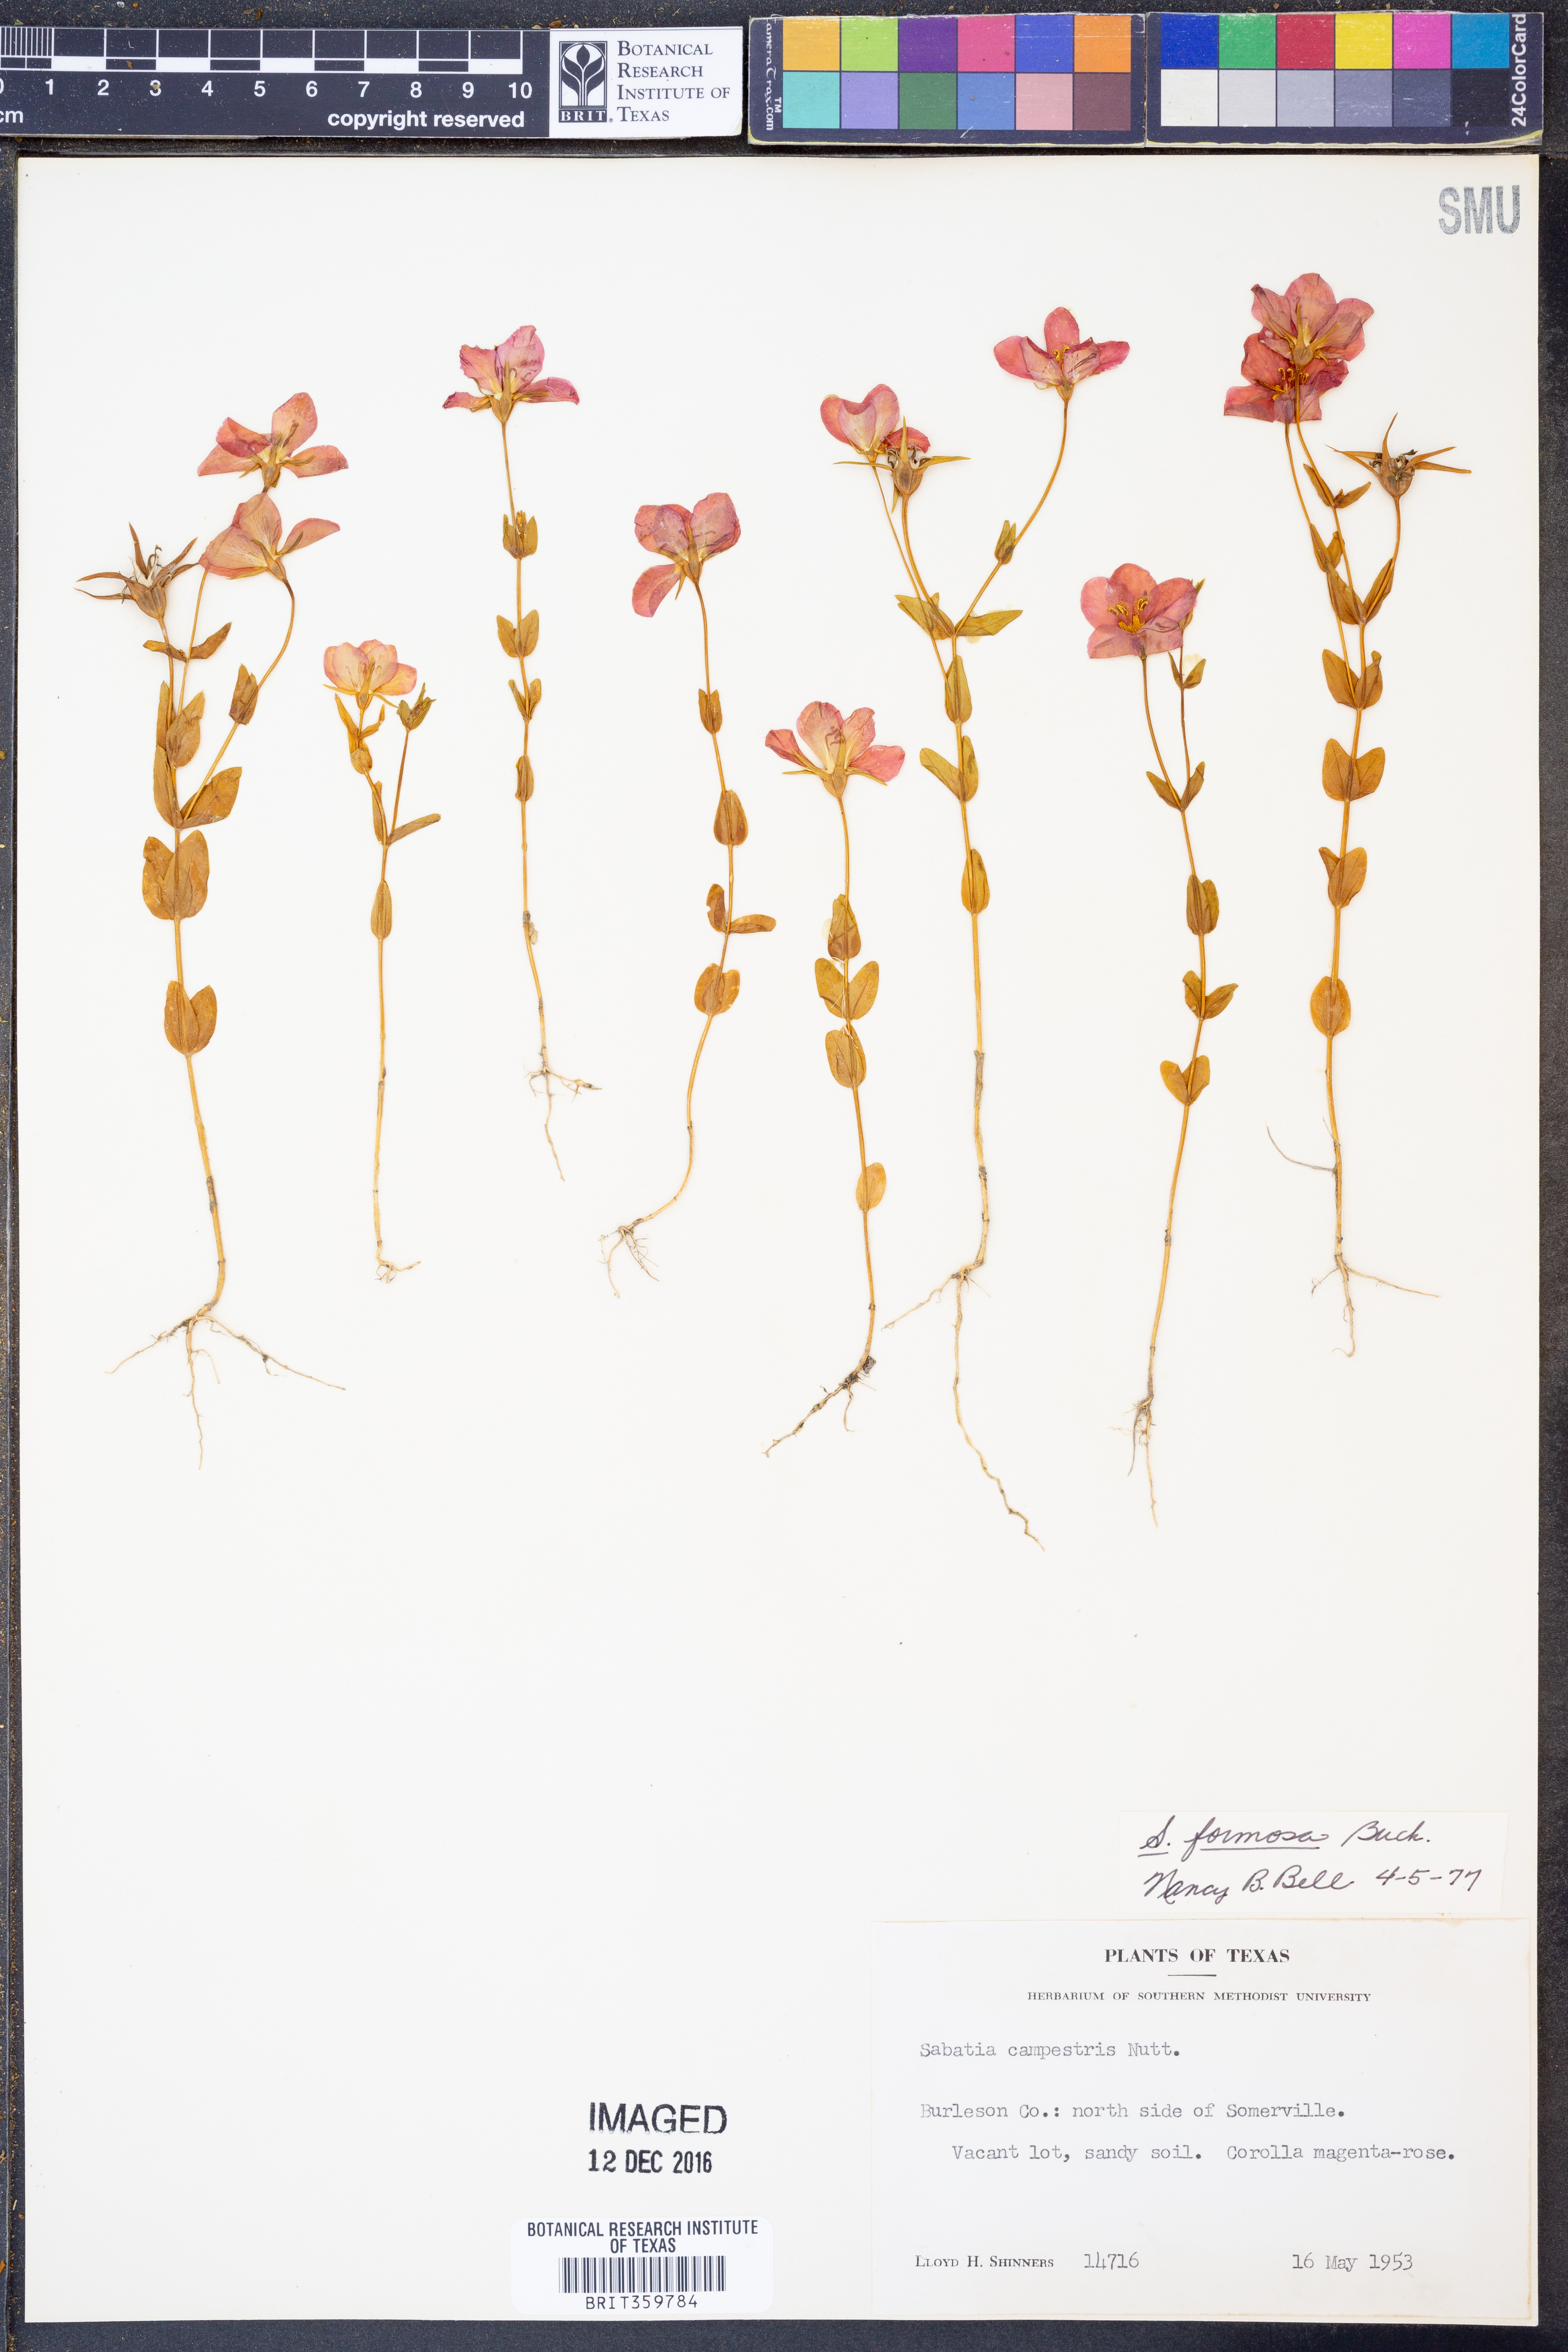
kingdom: Plantae
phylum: Tracheophyta
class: Magnoliopsida
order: Gentianales
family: Gentianaceae
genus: Sabatia
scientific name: Sabatia formosa
